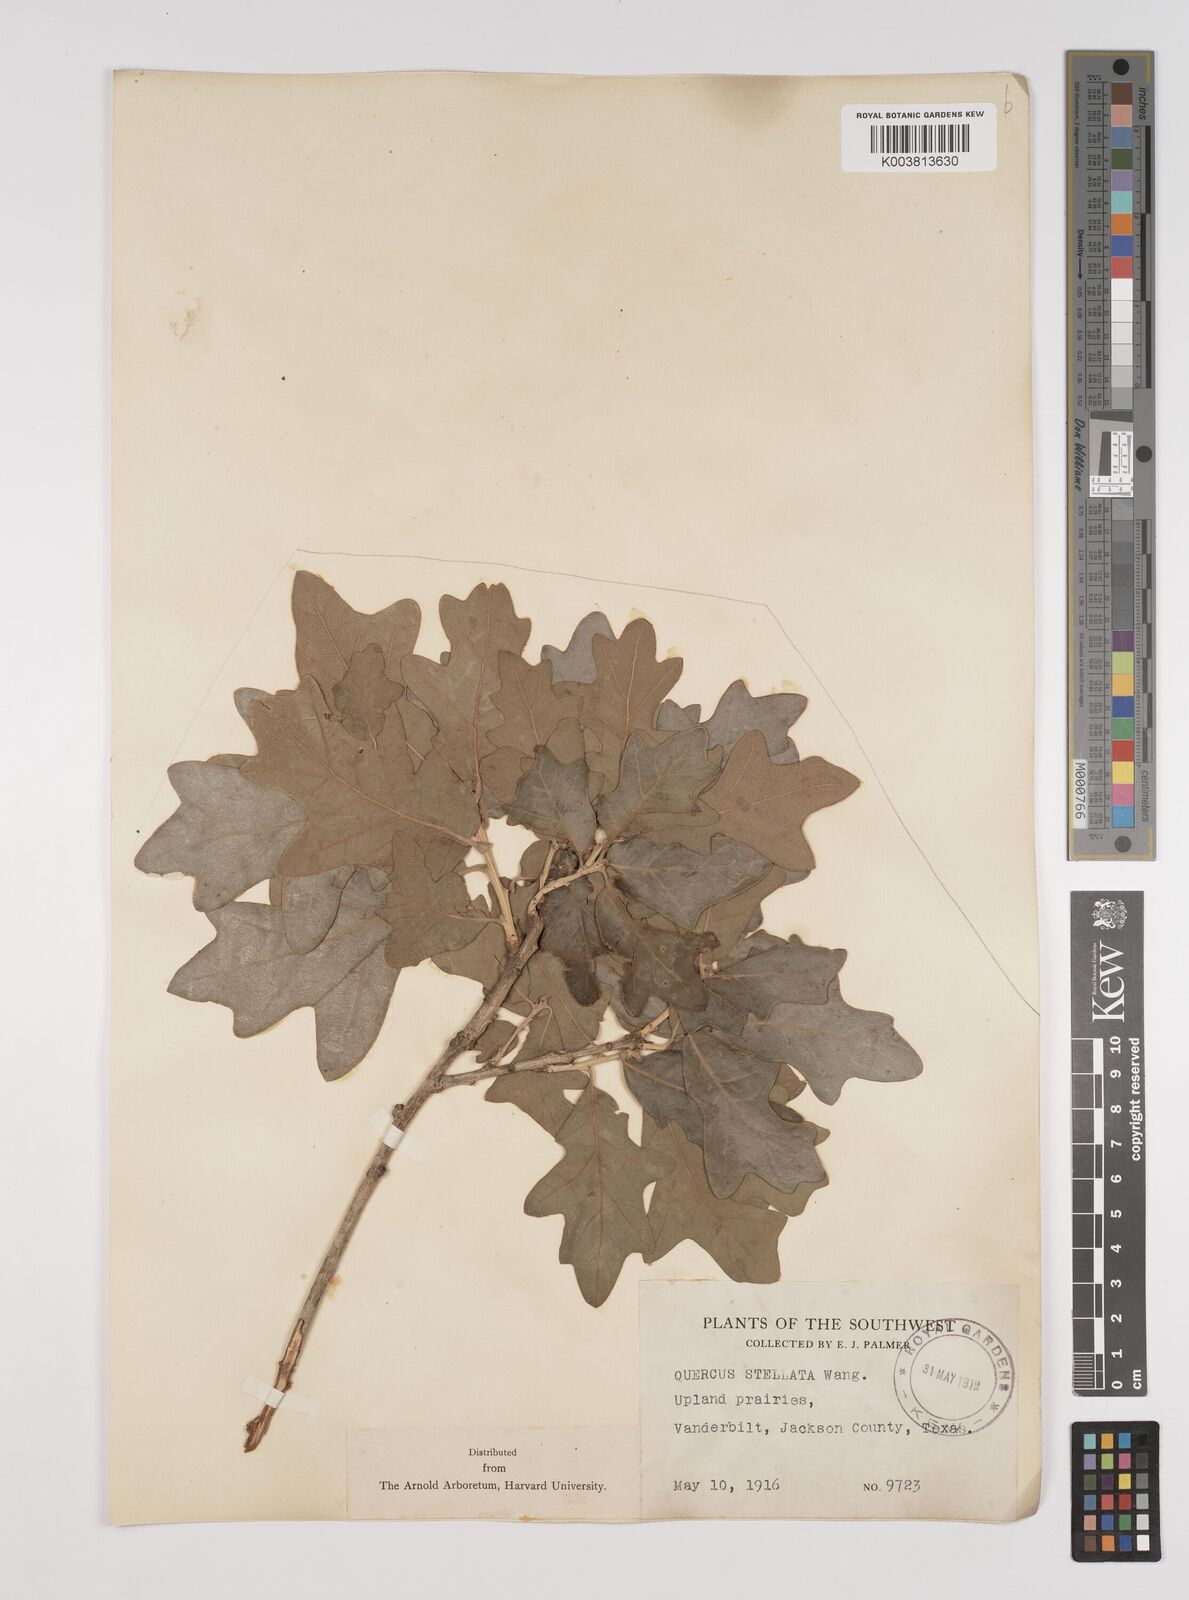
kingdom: Plantae
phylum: Tracheophyta
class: Magnoliopsida
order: Fagales
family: Fagaceae
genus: Quercus
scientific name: Quercus stellata
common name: Post oak
